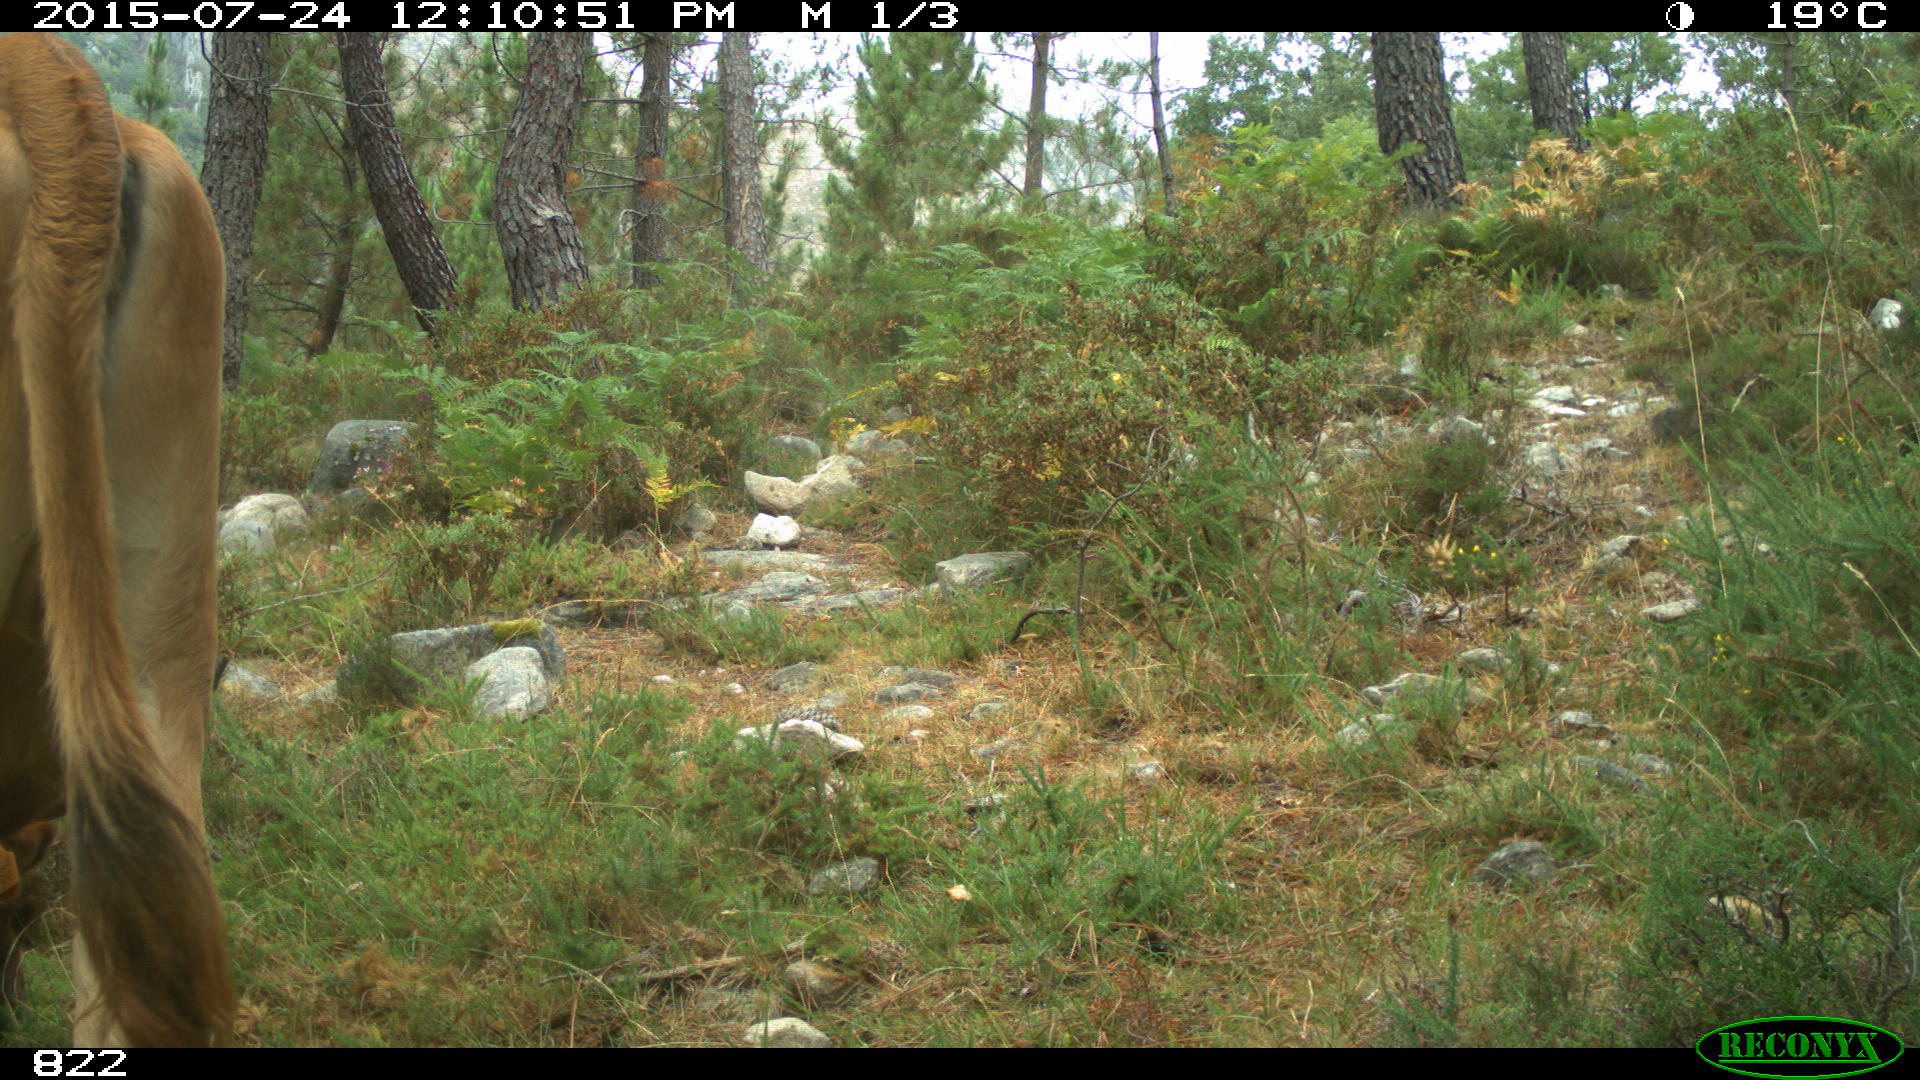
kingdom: Animalia
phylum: Chordata
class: Mammalia
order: Artiodactyla
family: Bovidae
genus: Bos
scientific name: Bos taurus
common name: Domesticated cattle
